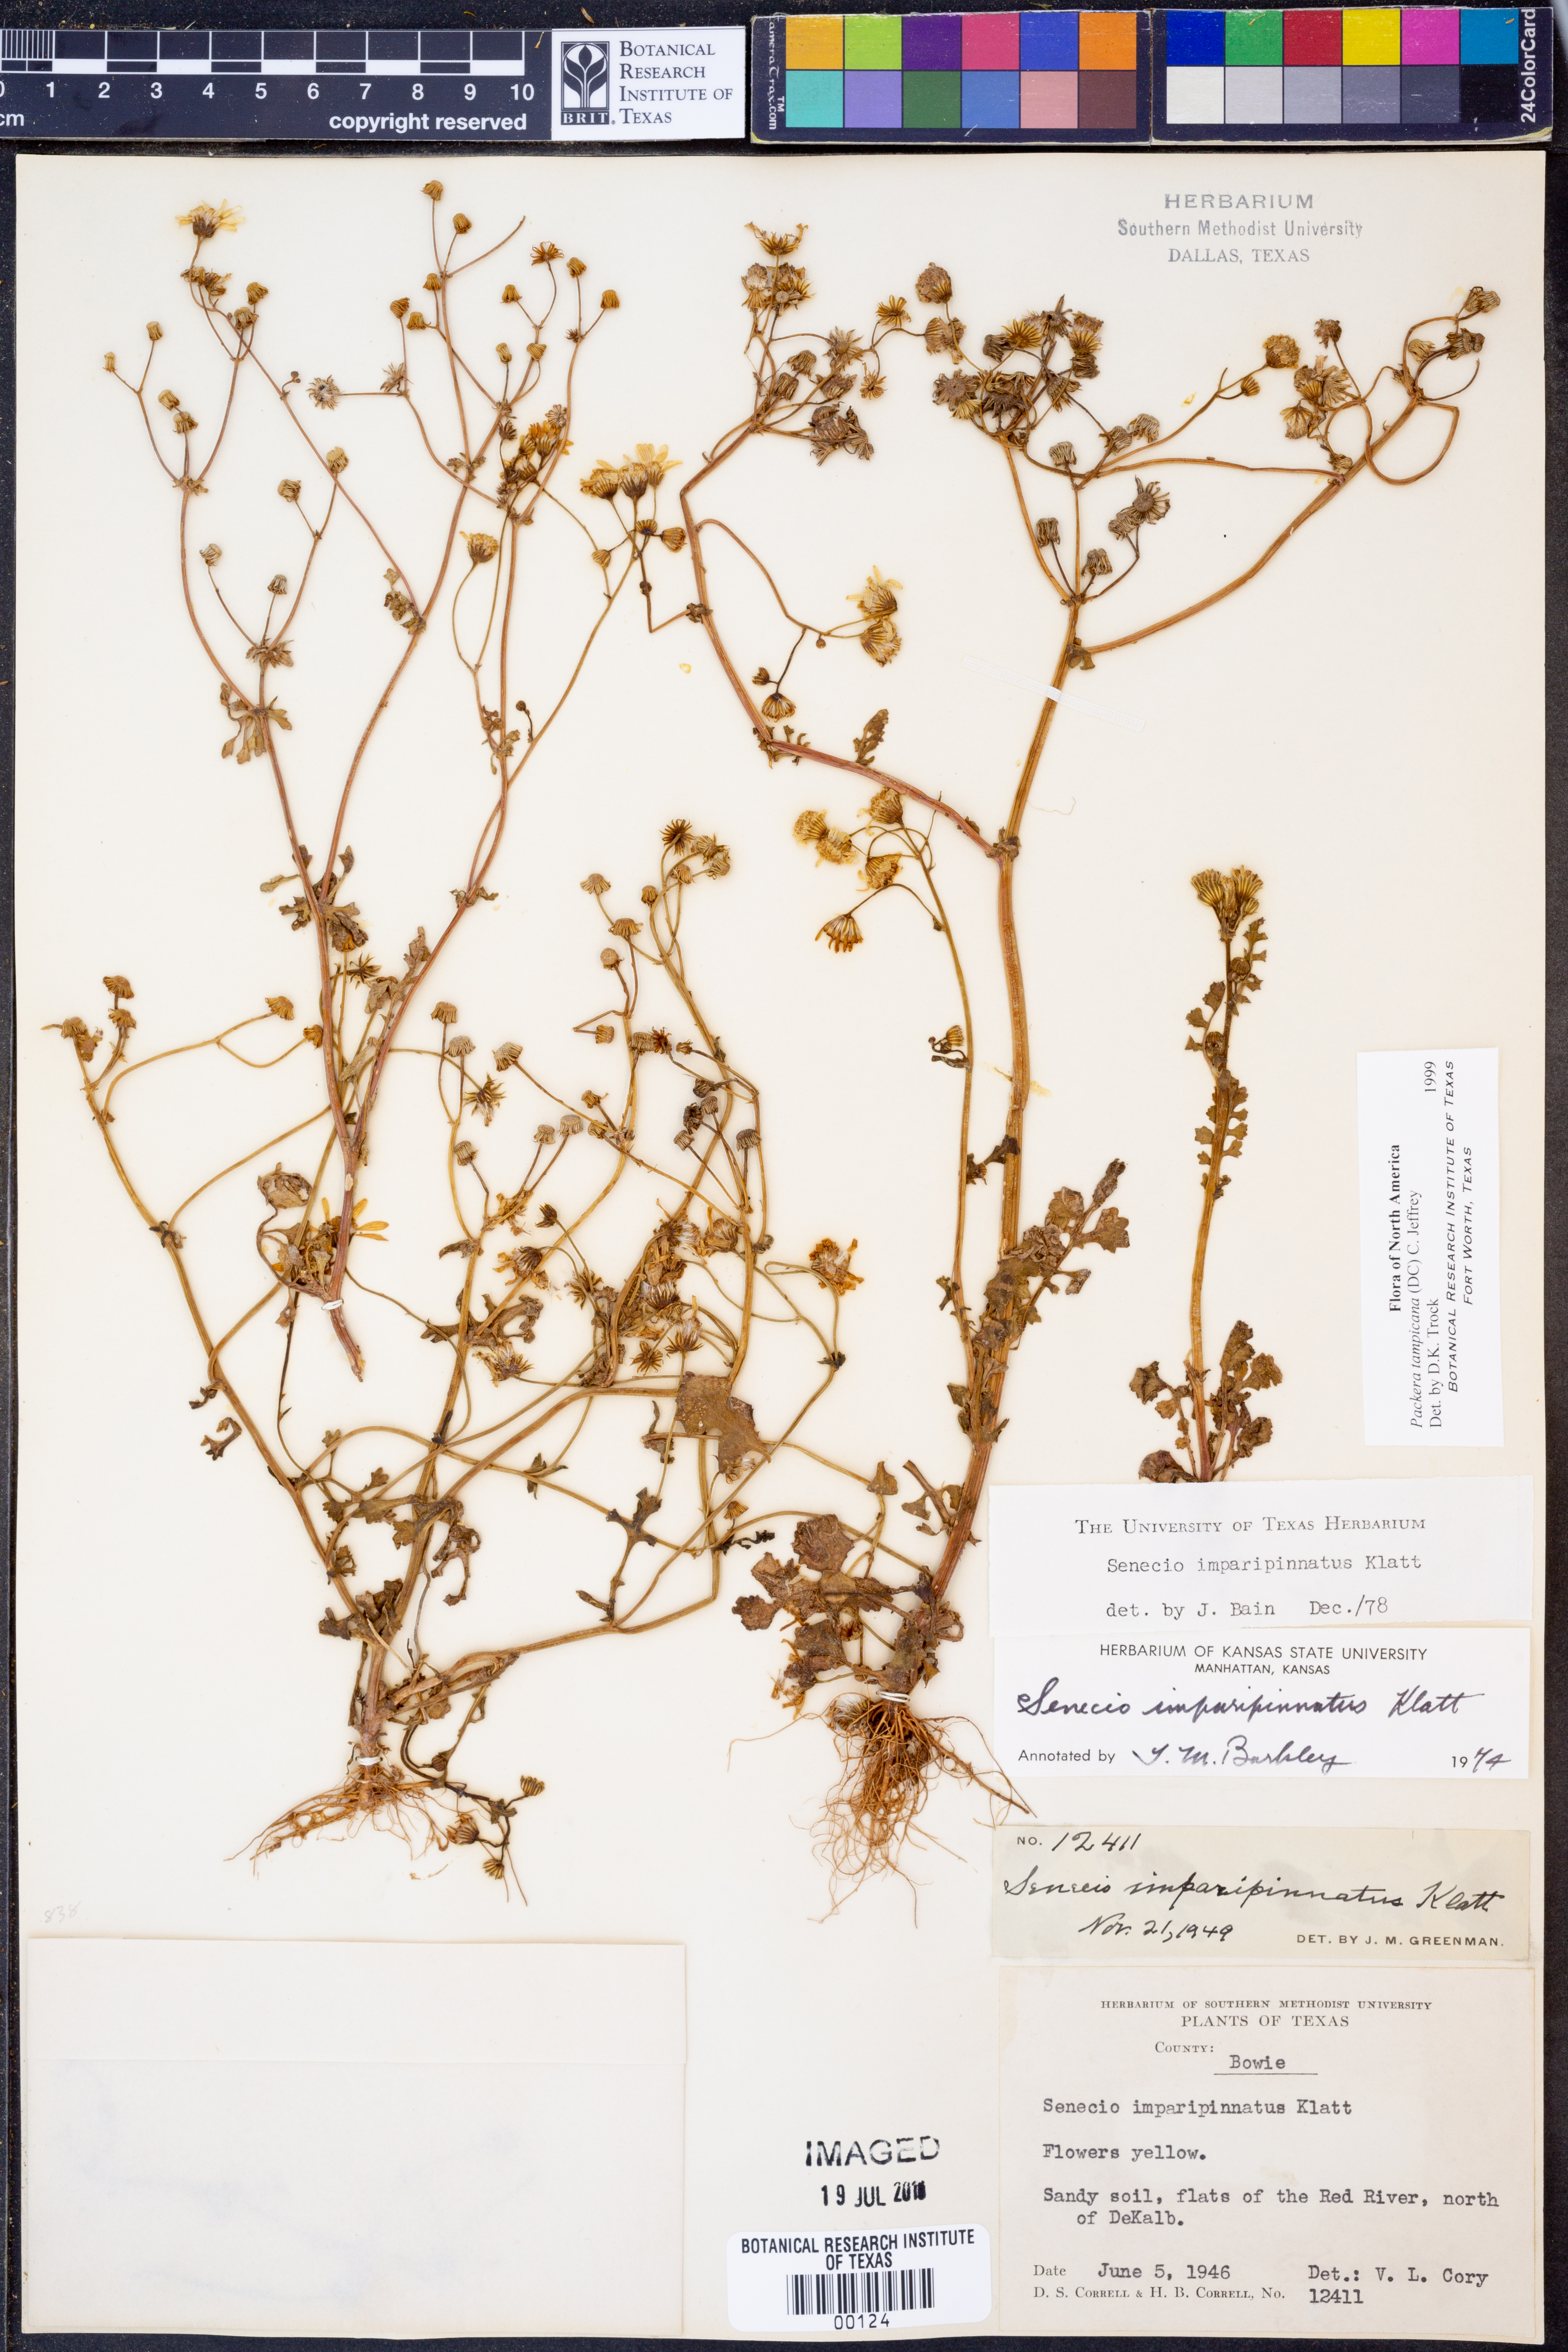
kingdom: Plantae
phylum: Tracheophyta
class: Magnoliopsida
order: Asterales
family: Asteraceae
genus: Packera
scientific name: Packera tampicana
